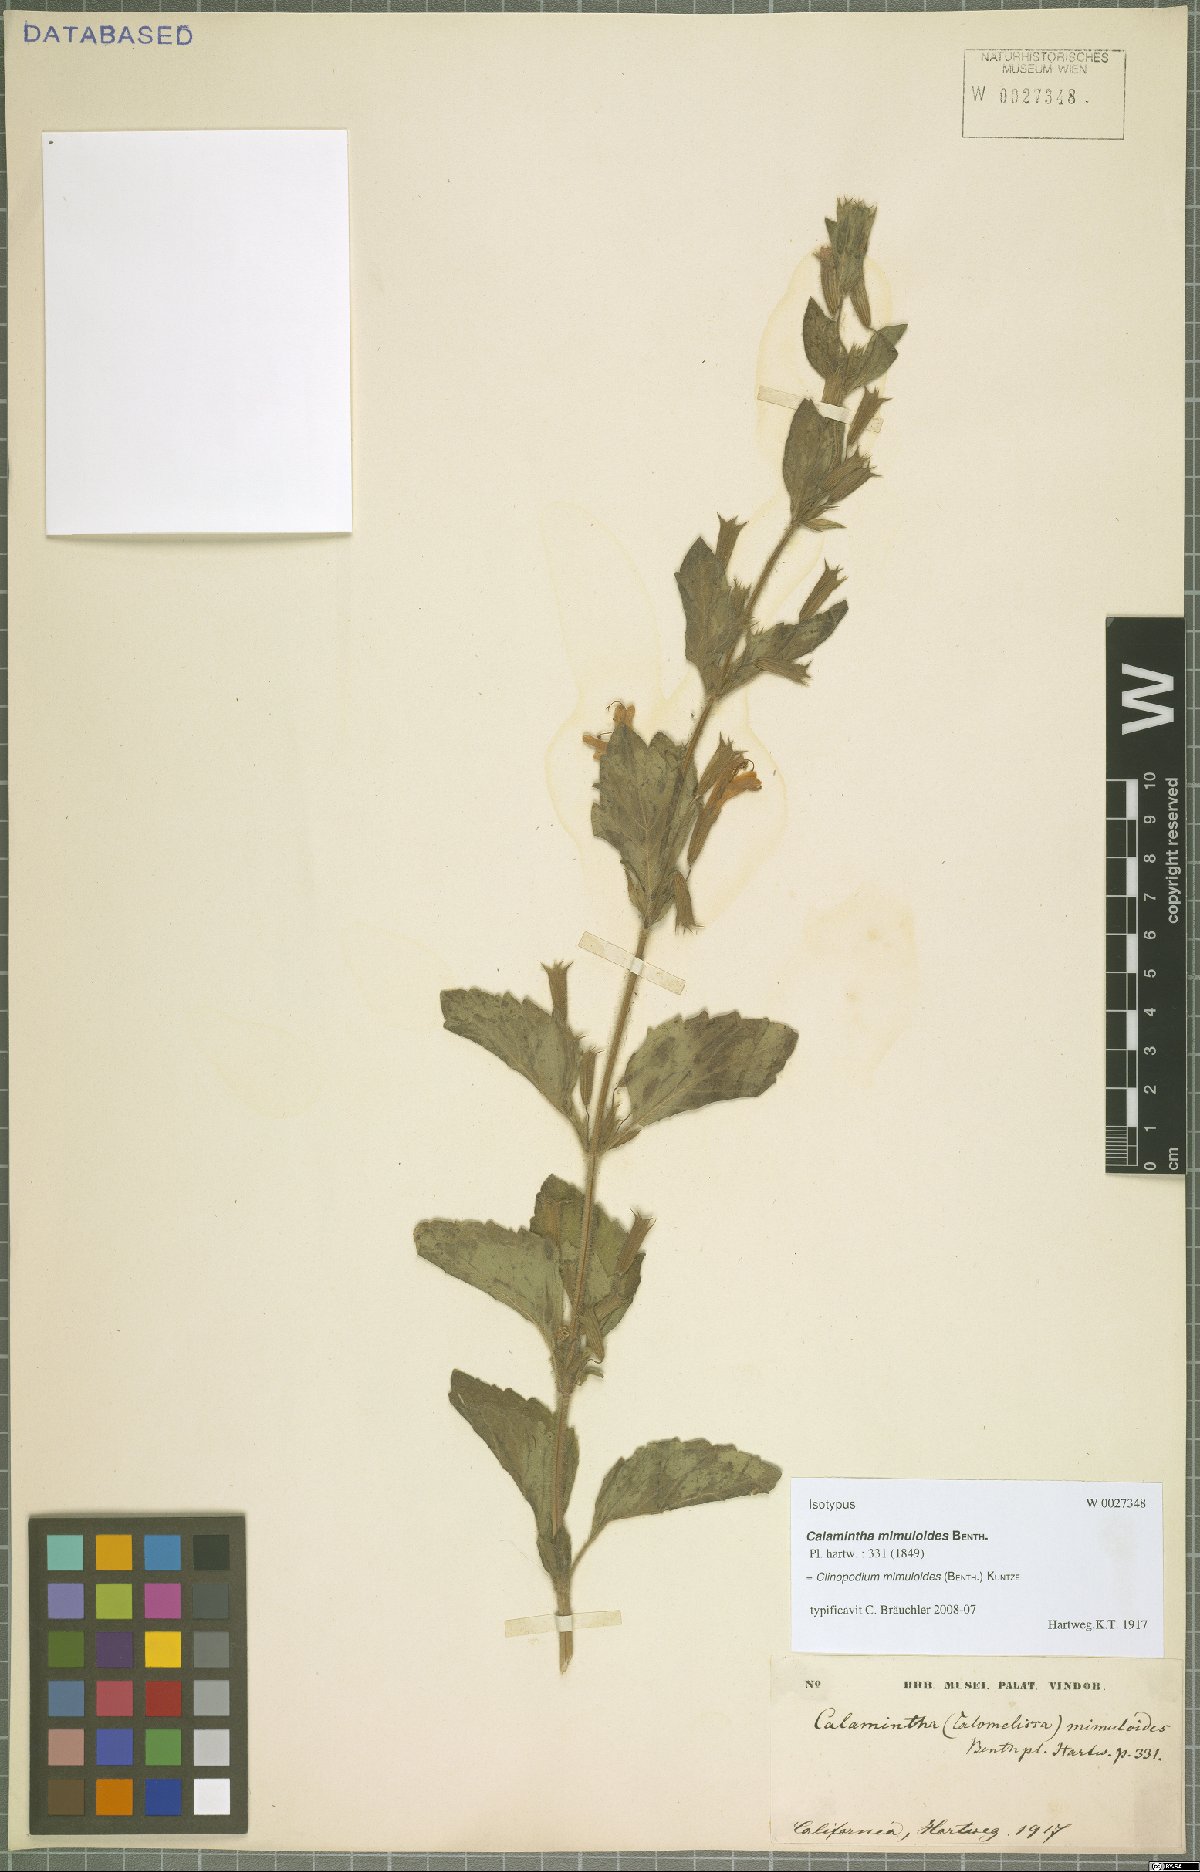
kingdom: Plantae
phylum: Tracheophyta
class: Magnoliopsida
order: Lamiales
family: Lamiaceae
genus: Clinopodium
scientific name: Clinopodium mimuloides
